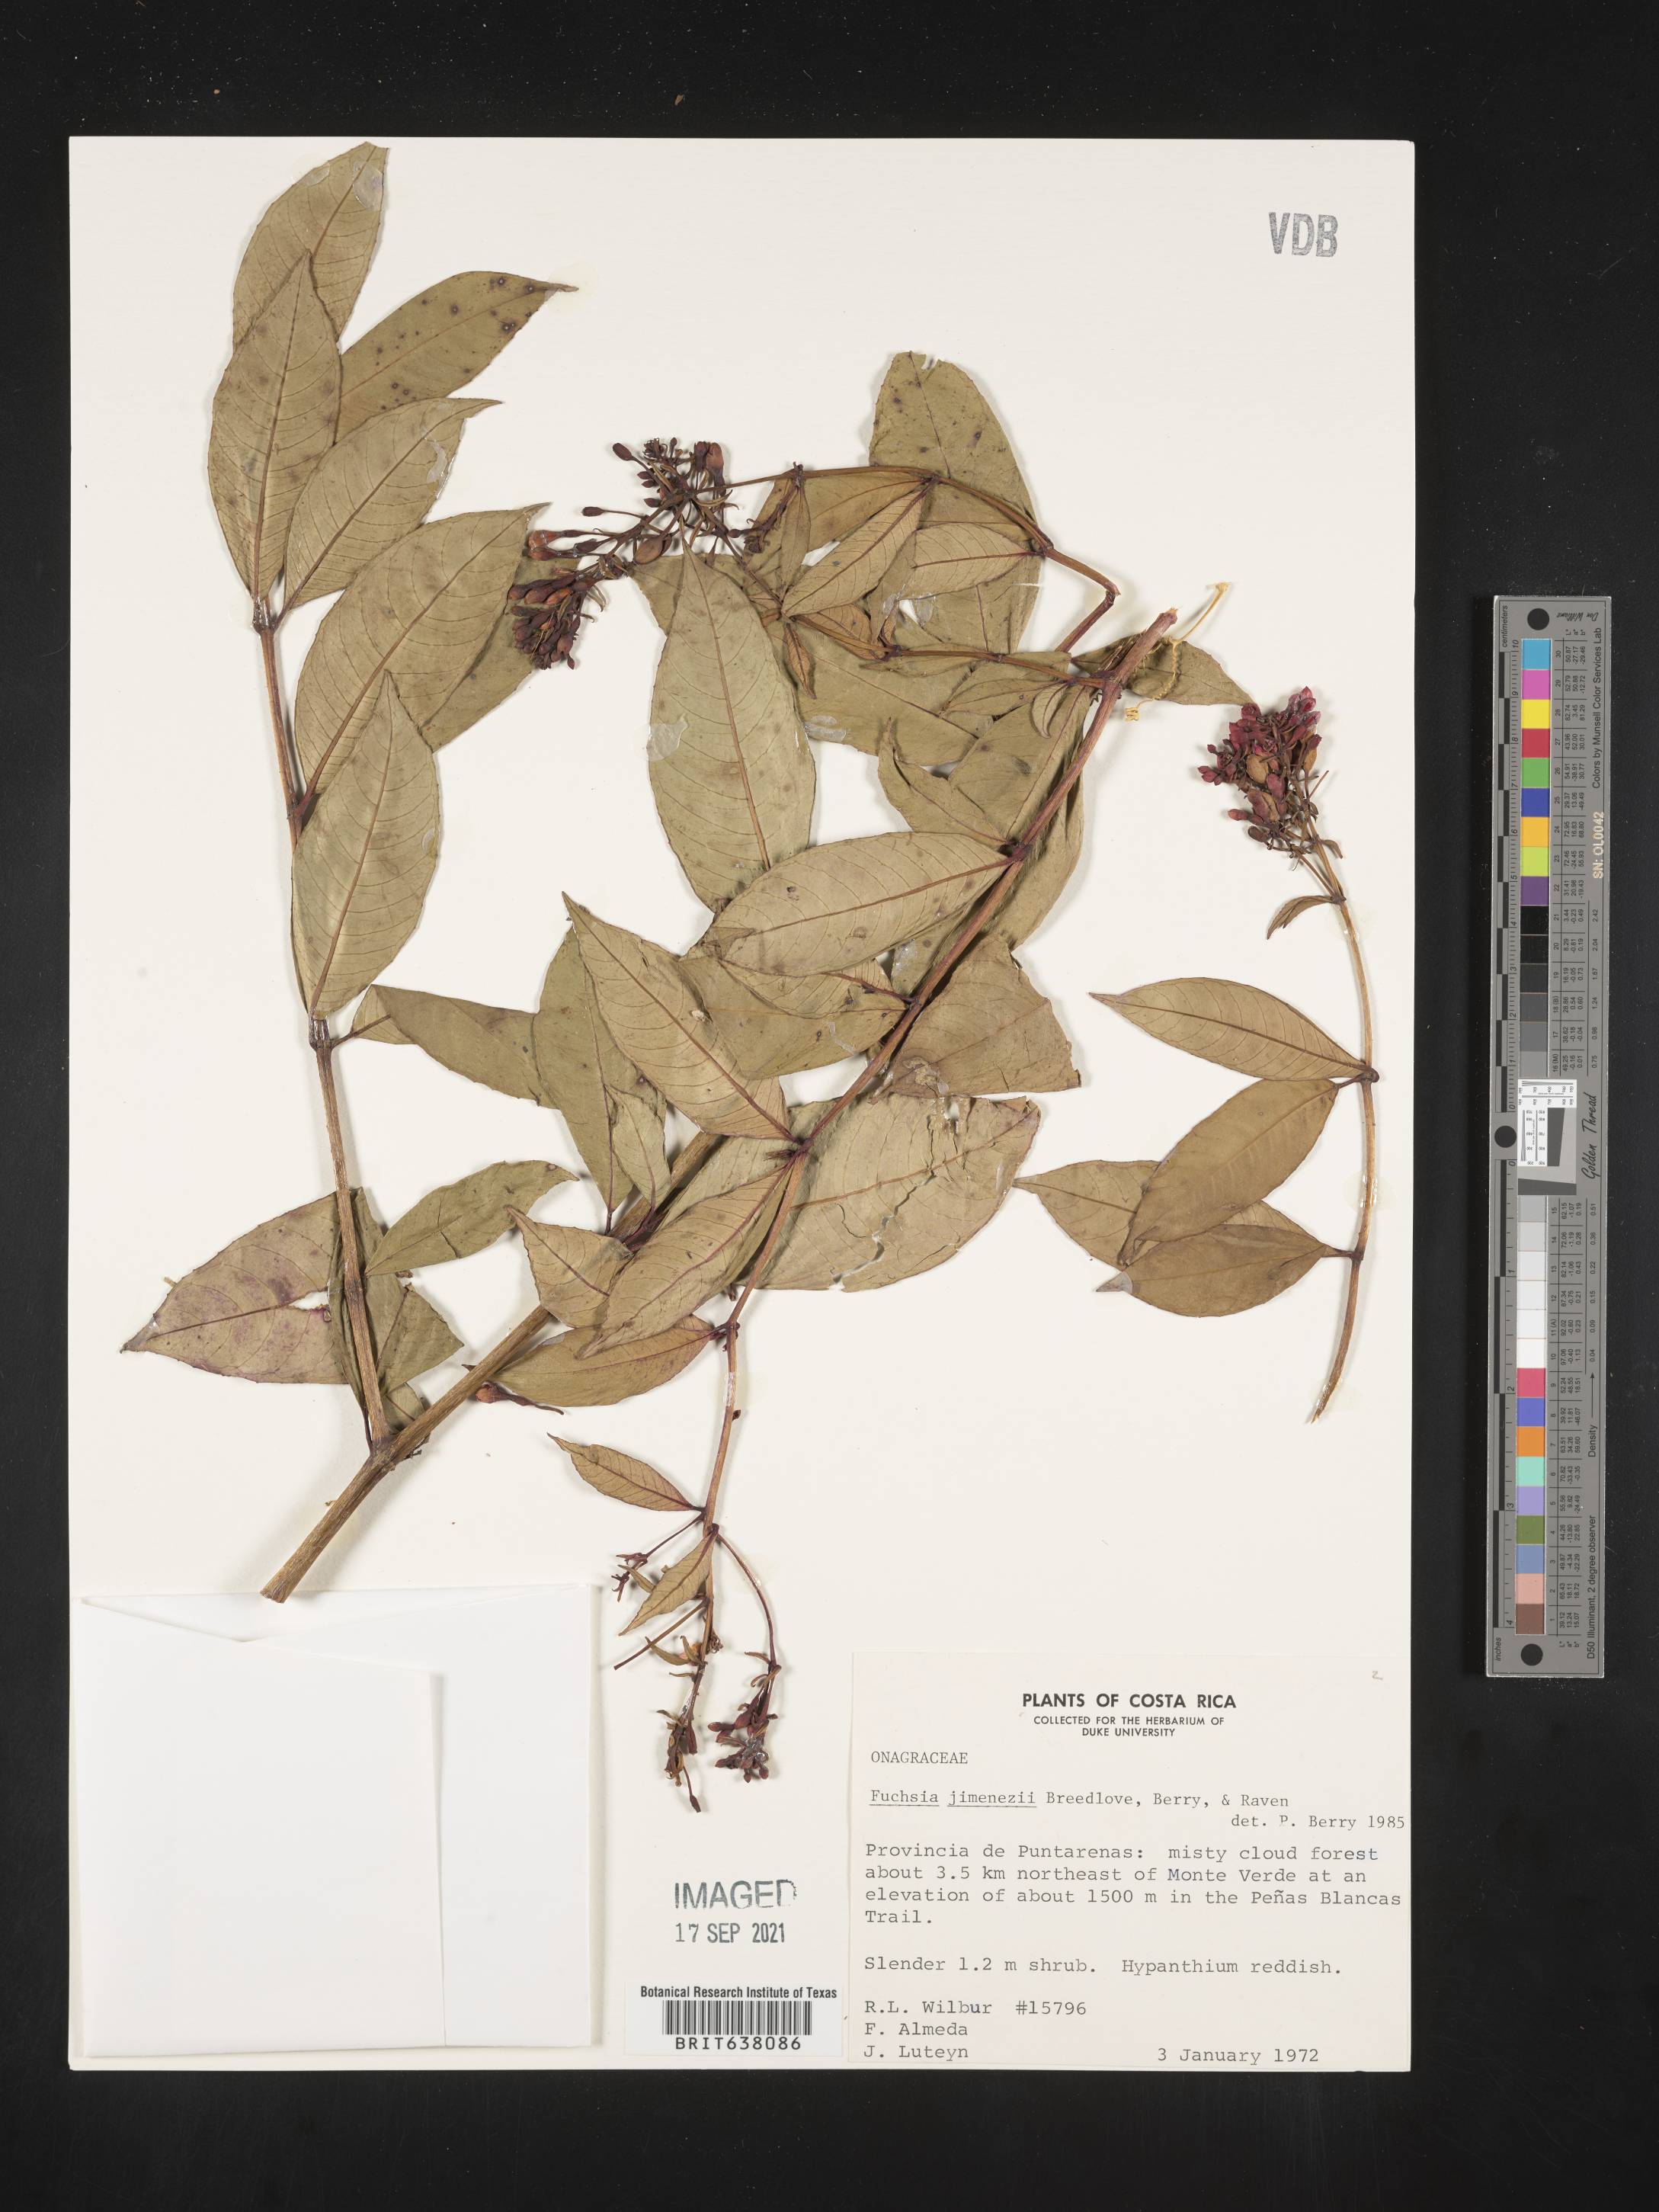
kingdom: Plantae
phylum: Tracheophyta
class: Magnoliopsida
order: Myrtales
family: Onagraceae
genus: Fuchsia
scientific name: Fuchsia
